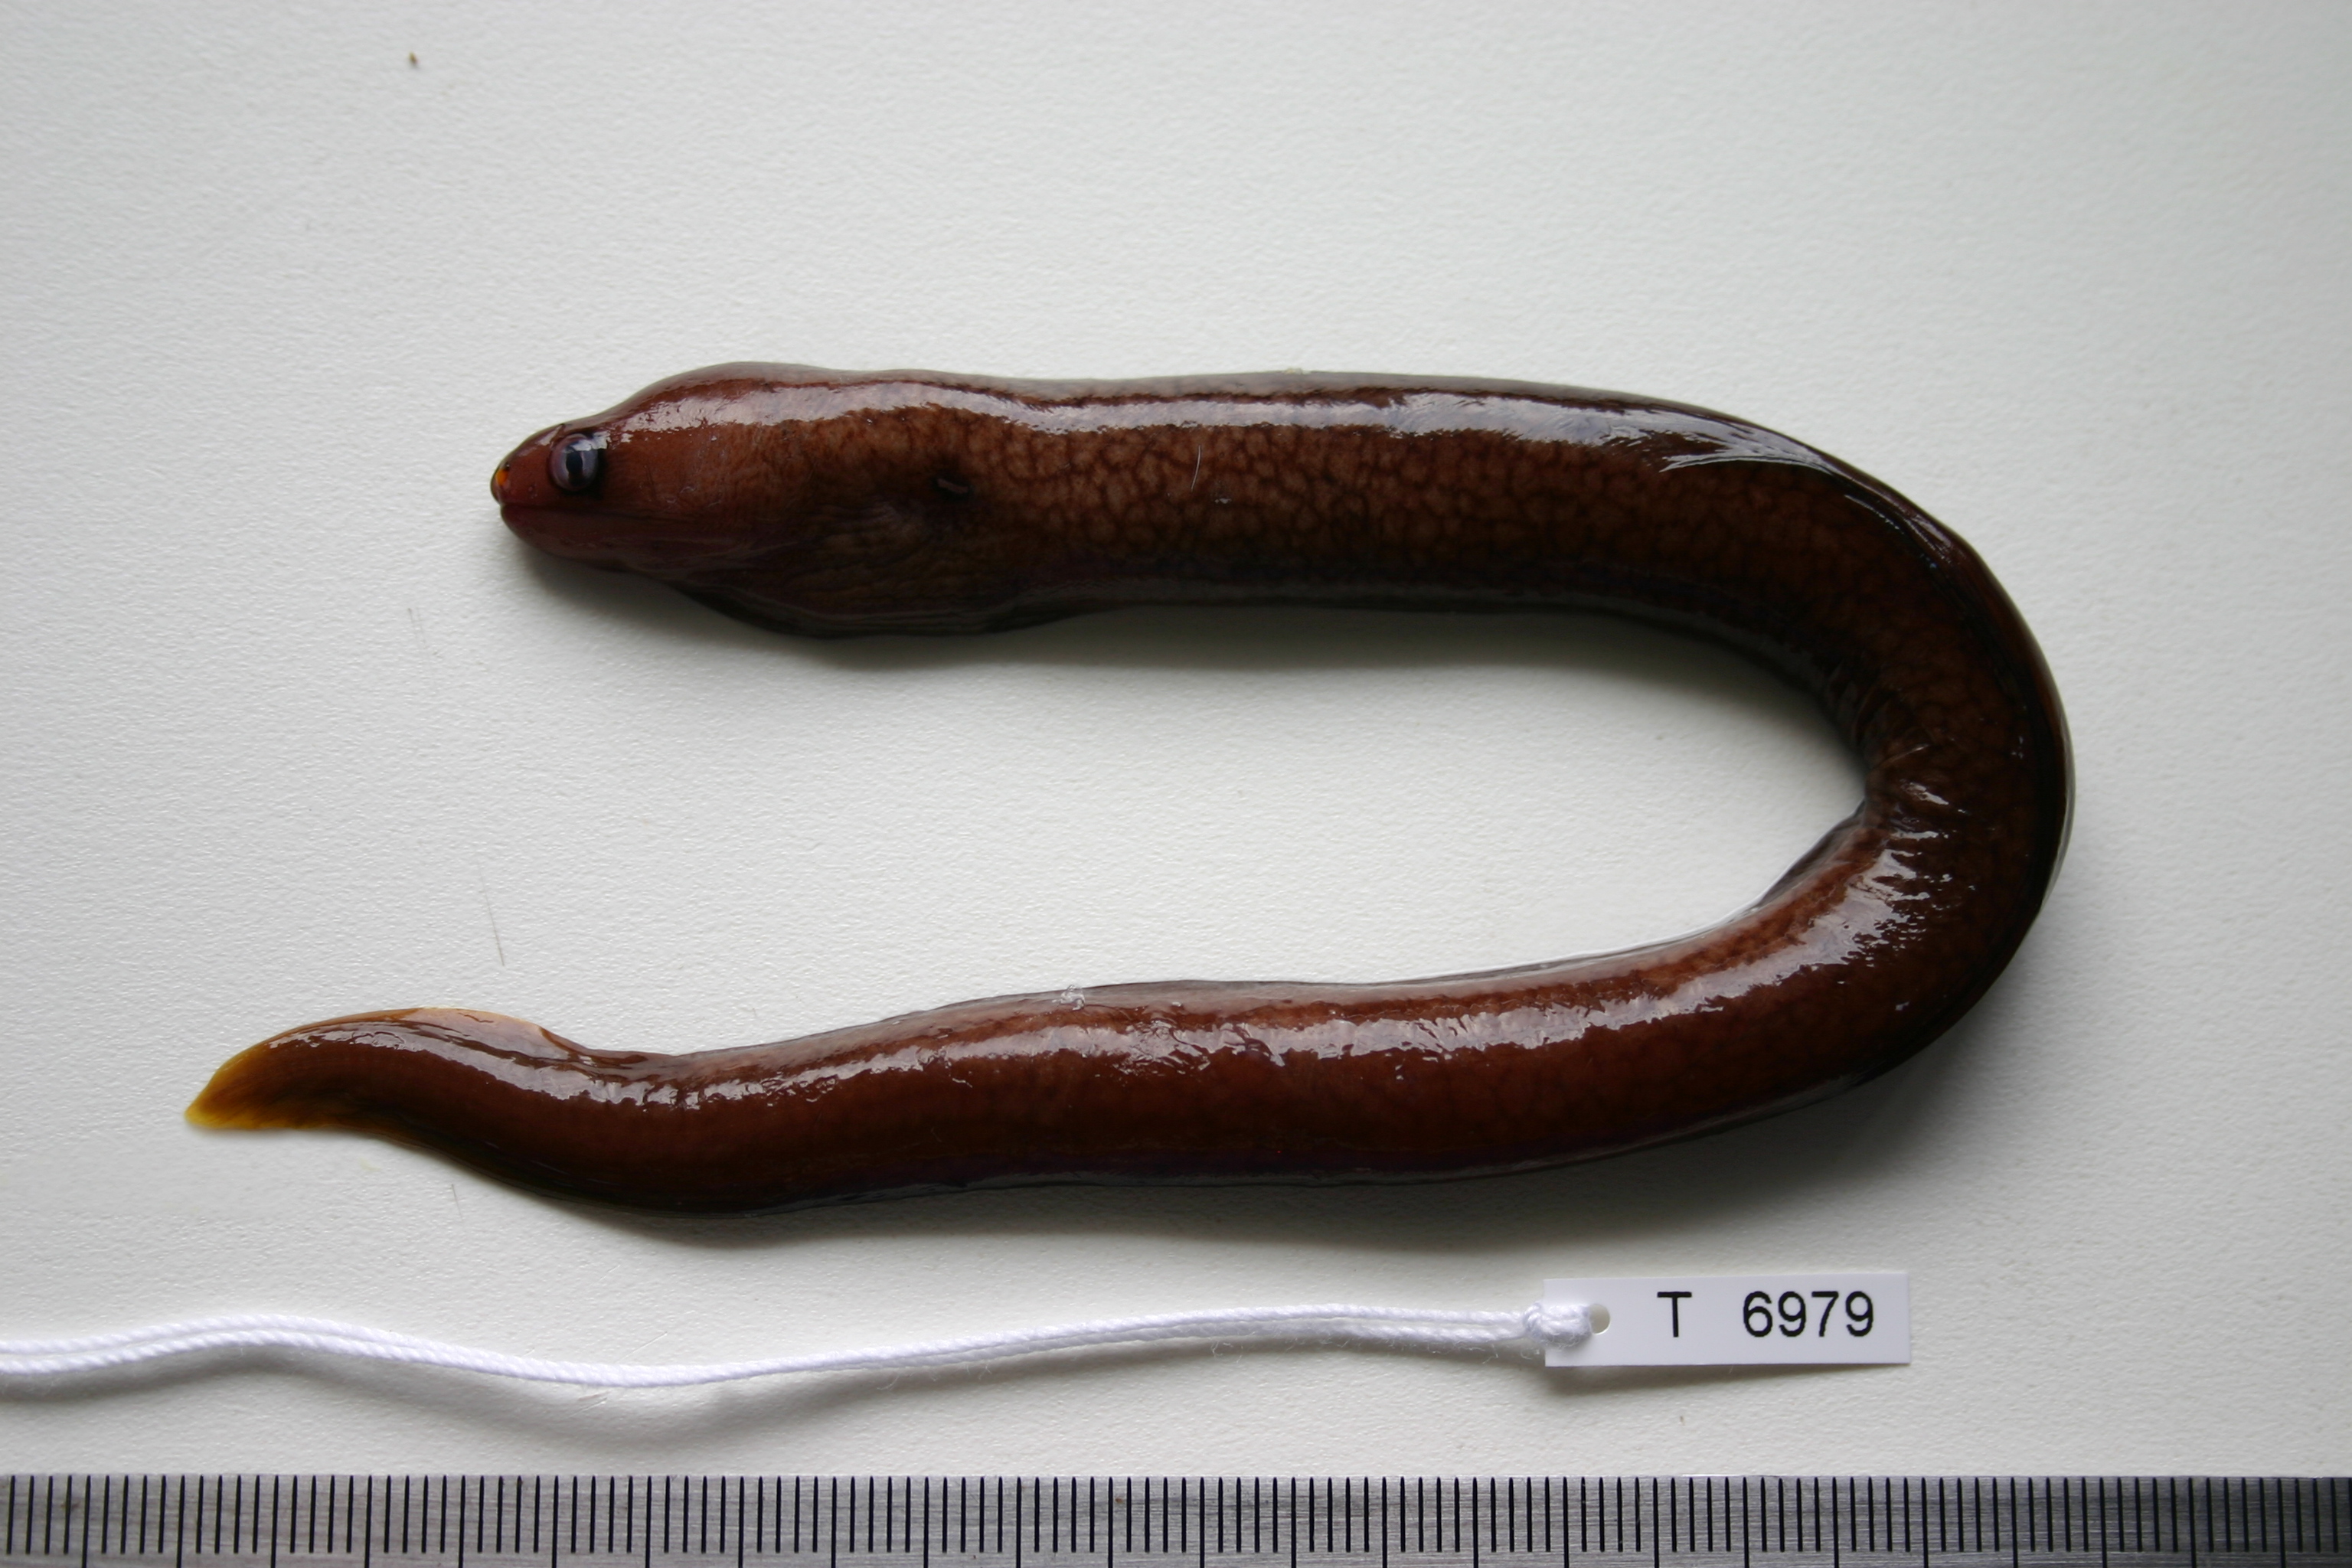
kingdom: Animalia
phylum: Chordata
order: Anguilliformes
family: Muraenidae
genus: Gymnothorax
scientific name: Gymnothorax melatremus
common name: Dwarf moray
